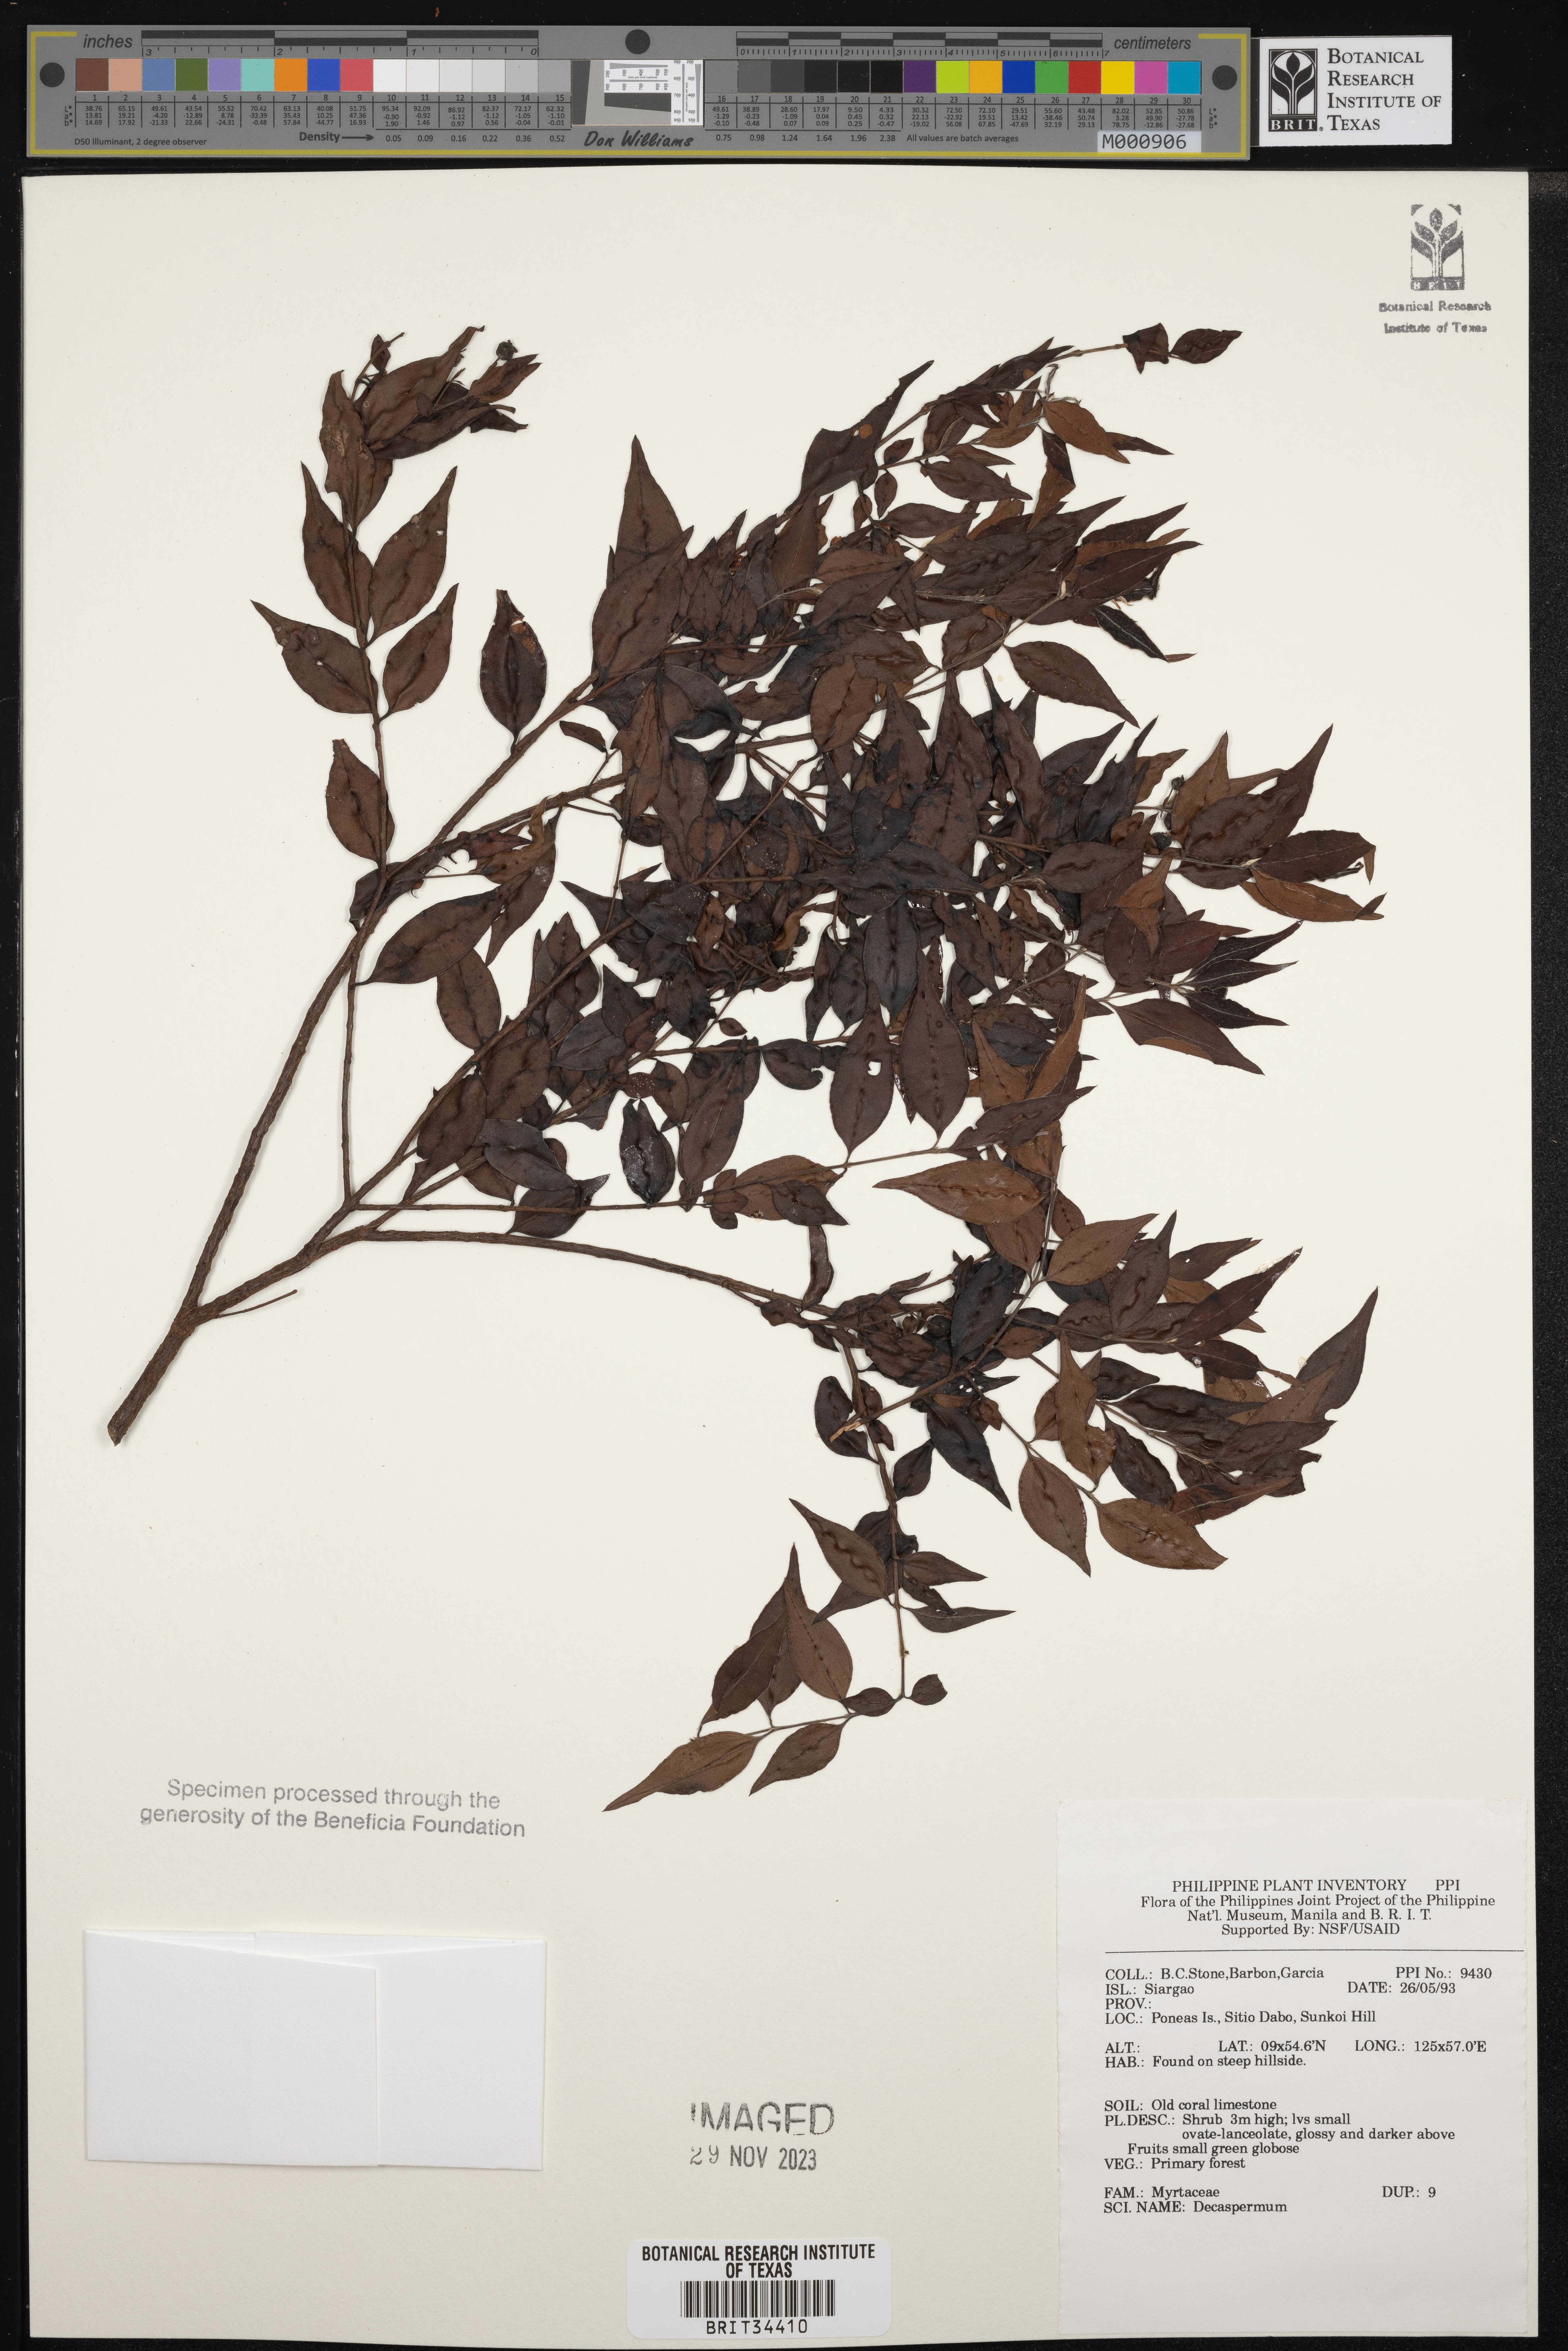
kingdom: Plantae
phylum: Tracheophyta
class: Magnoliopsida
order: Myrtales
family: Myrtaceae
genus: Decaspermum
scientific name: Decaspermum
